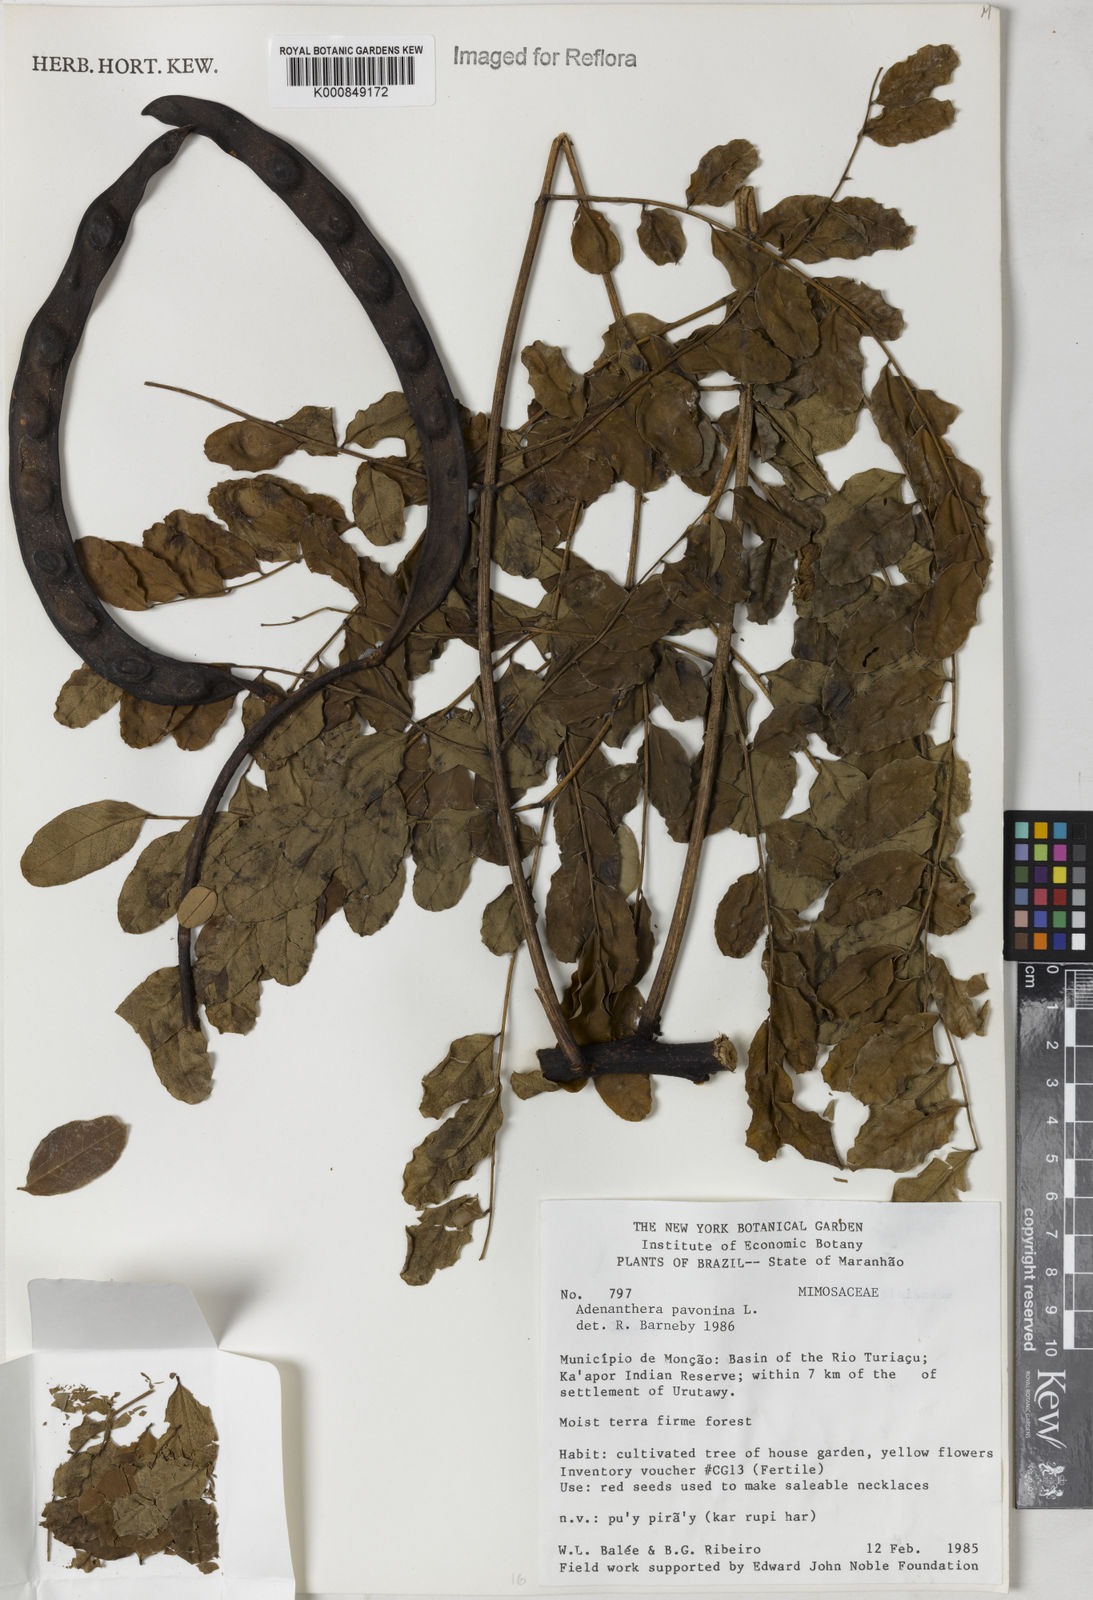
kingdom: Plantae
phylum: Tracheophyta
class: Magnoliopsida
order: Fabales
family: Fabaceae
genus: Adenanthera
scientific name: Adenanthera pavonina
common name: Red beadtree
